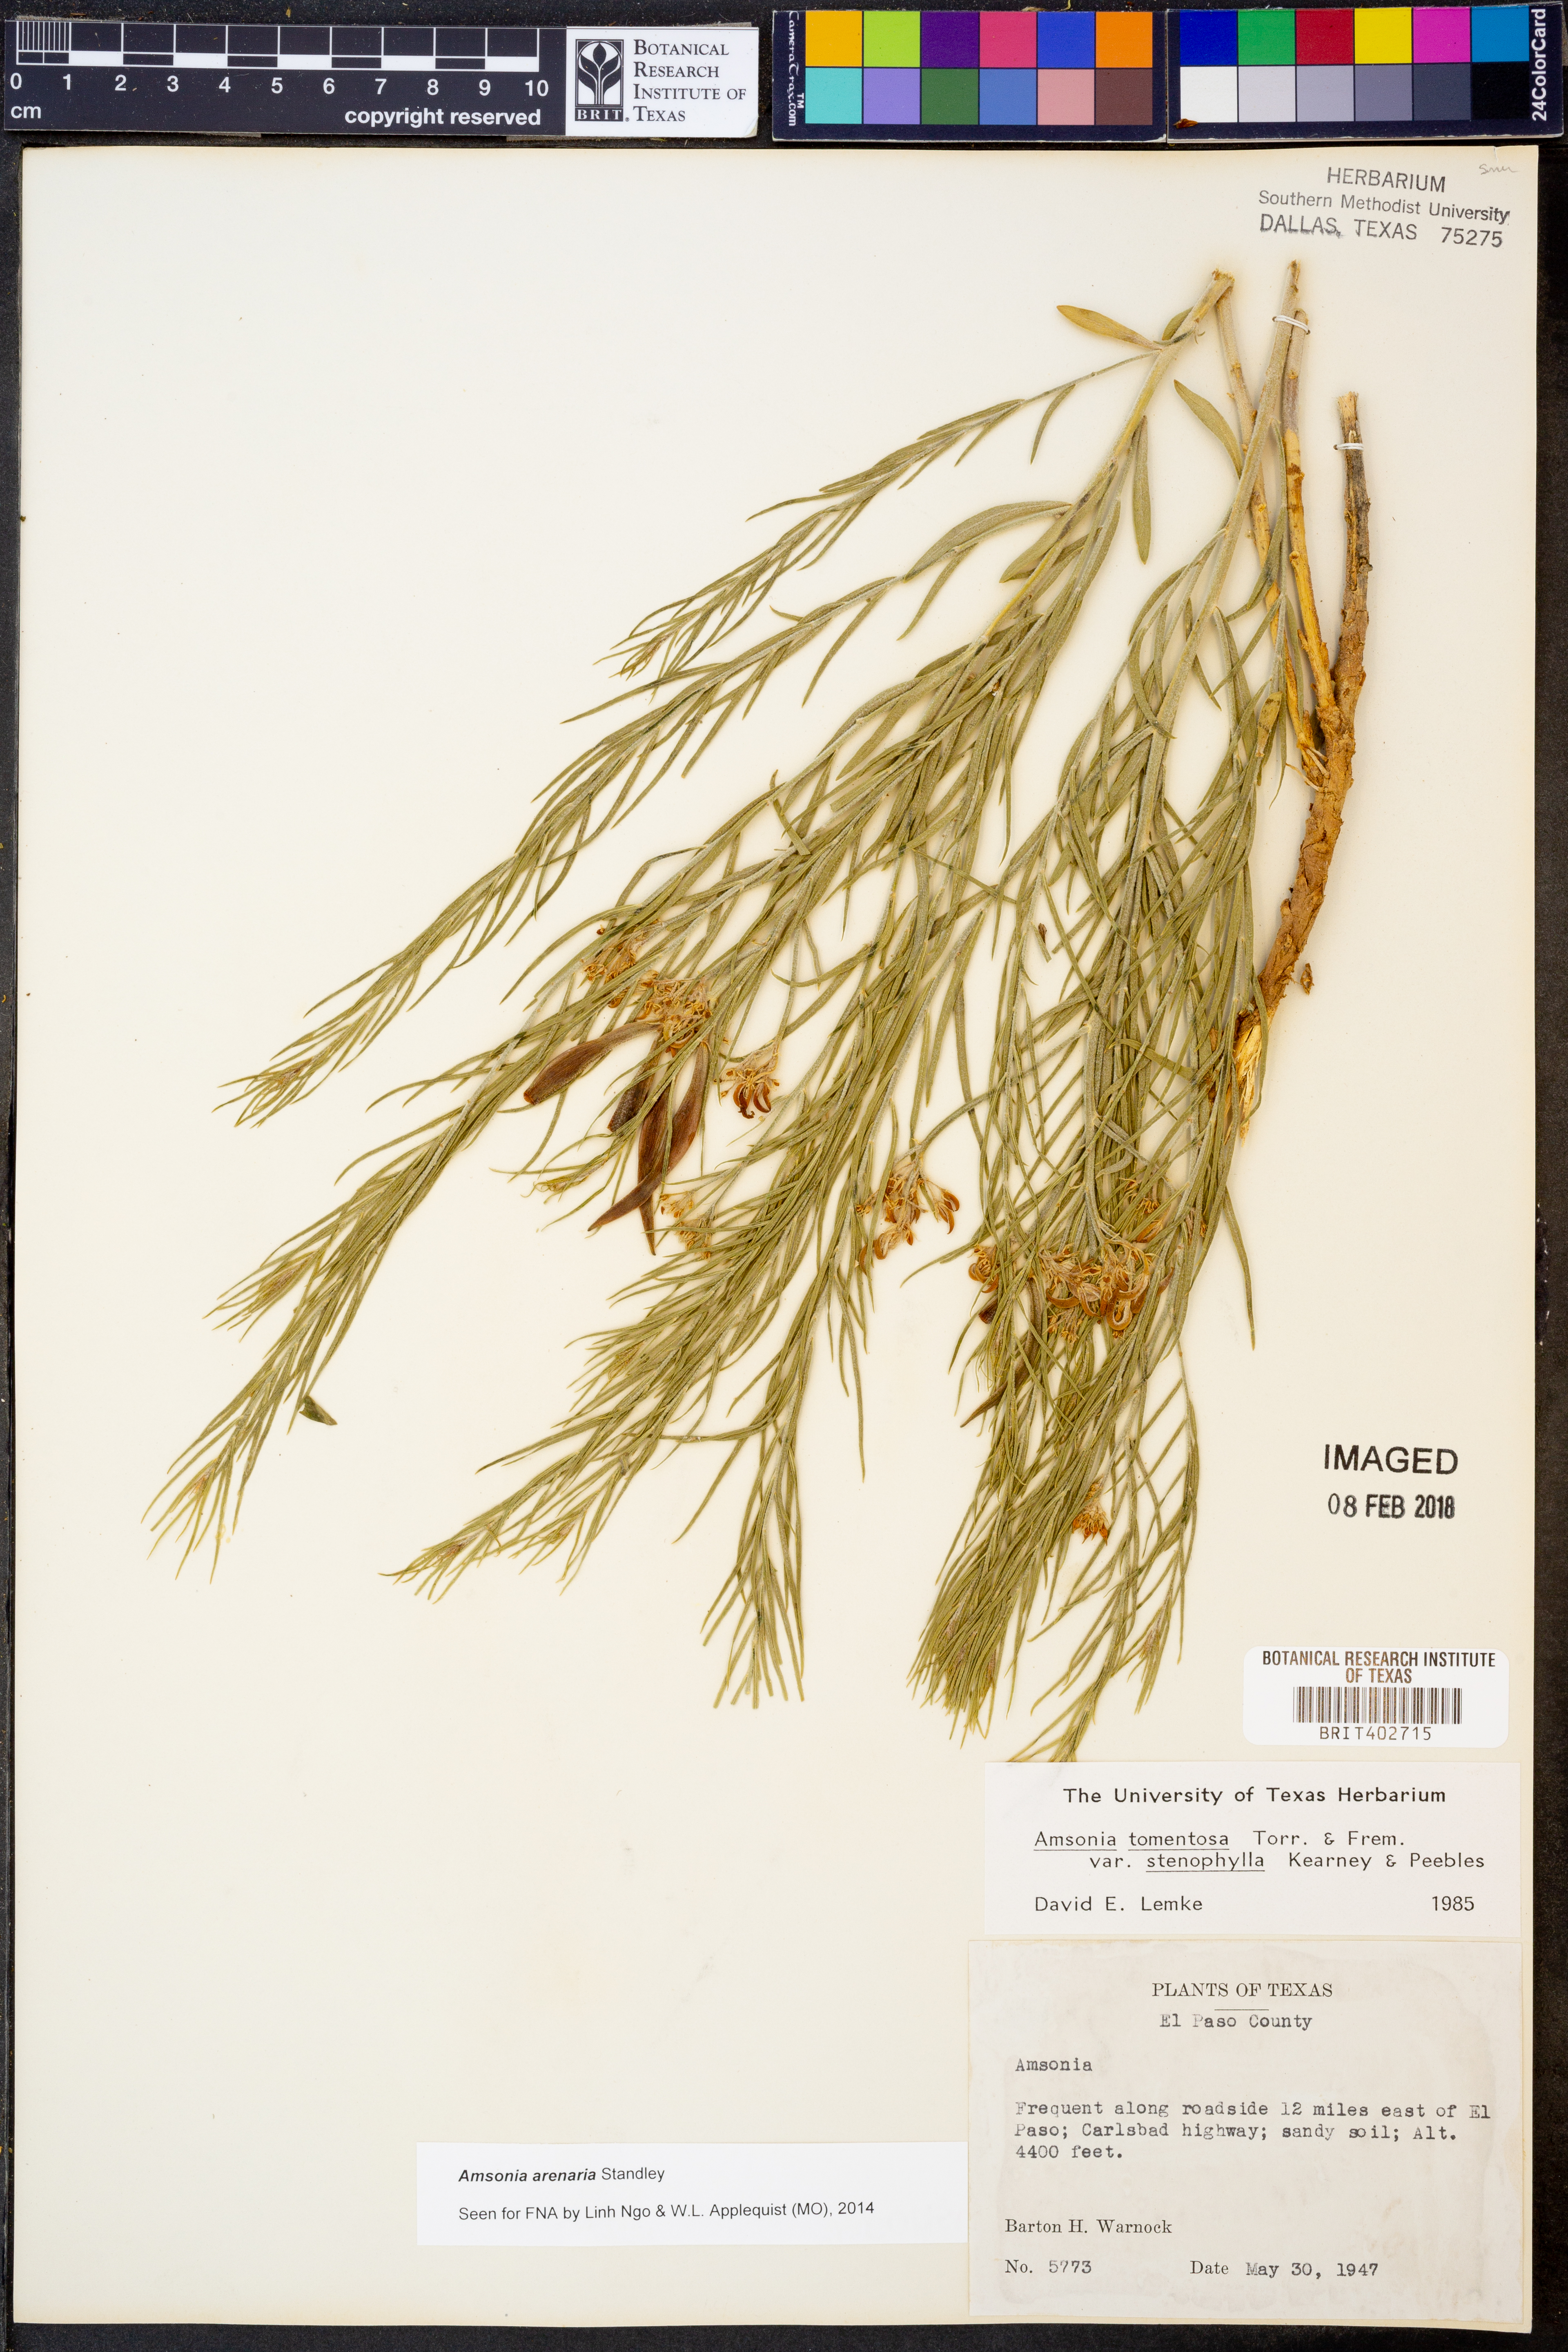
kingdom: Plantae
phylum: Tracheophyta
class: Magnoliopsida
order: Gentianales
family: Apocynaceae
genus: Amsonia
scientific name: Amsonia tomentosa
